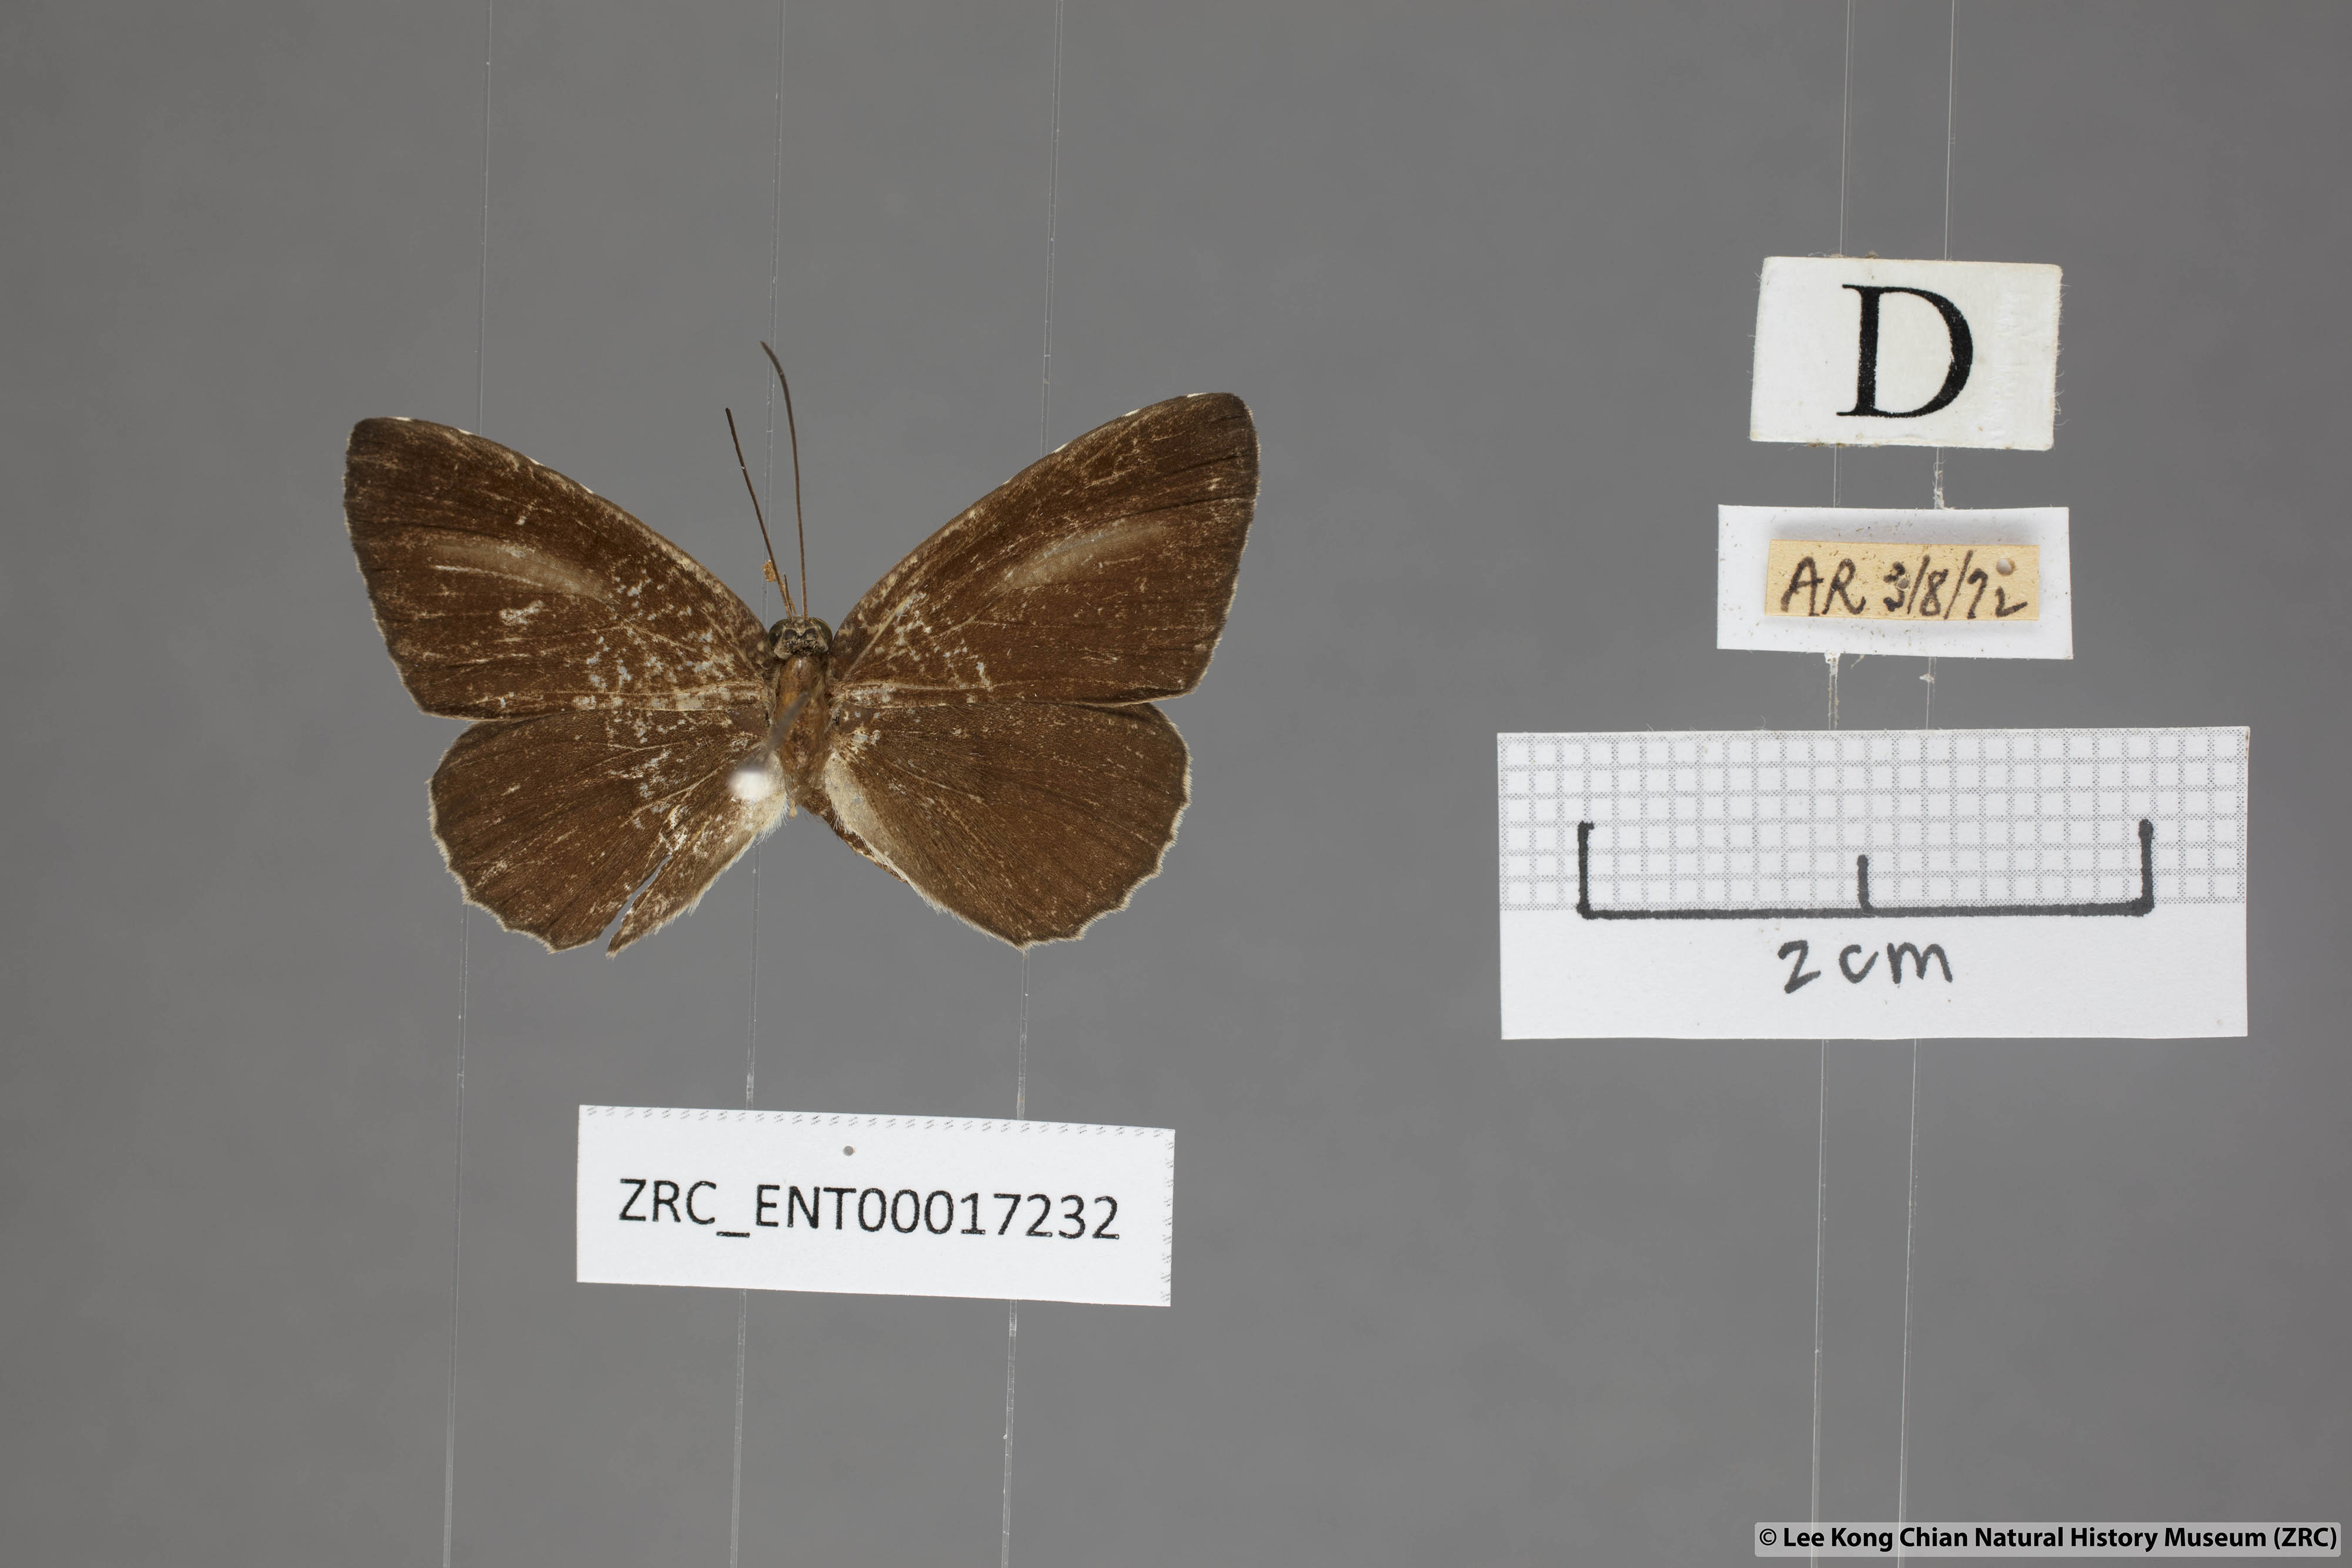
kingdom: Animalia
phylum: Arthropoda
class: Insecta
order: Lepidoptera
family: Lycaenidae
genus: Allotinus
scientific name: Allotinus fabius
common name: Angled darkie
